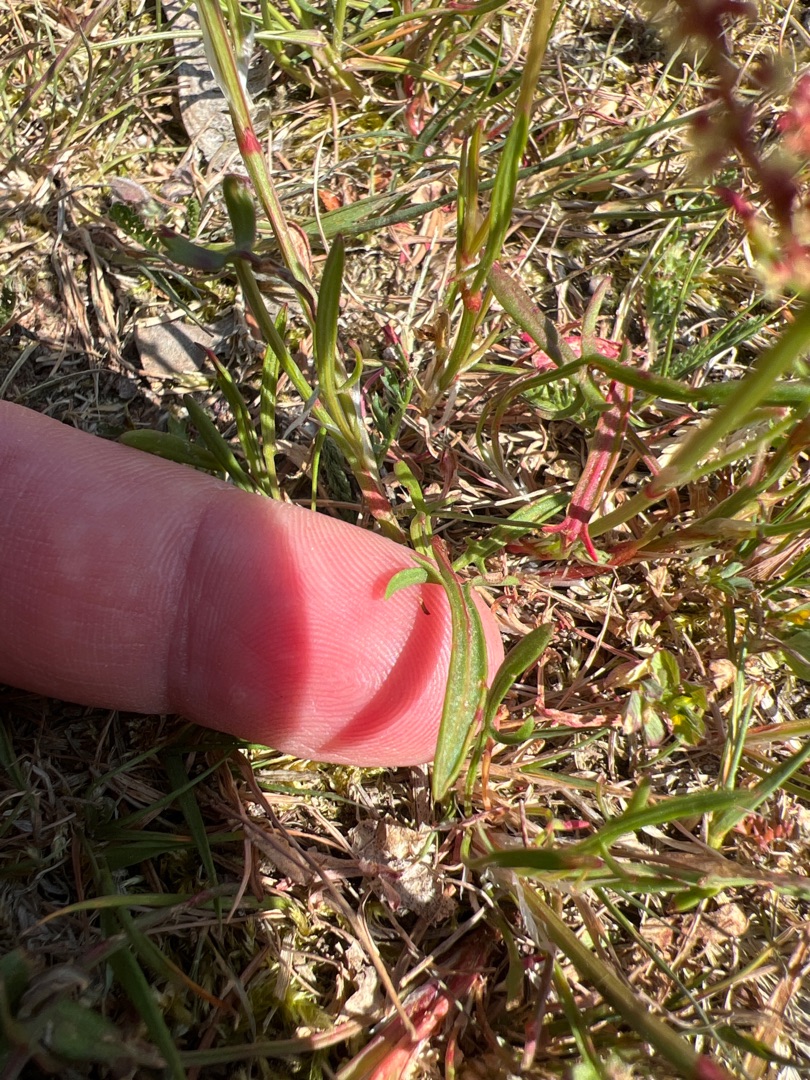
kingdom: Plantae
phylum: Tracheophyta
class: Magnoliopsida
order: Caryophyllales
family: Polygonaceae
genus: Rumex
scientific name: Rumex acetosella
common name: Rødknæ
